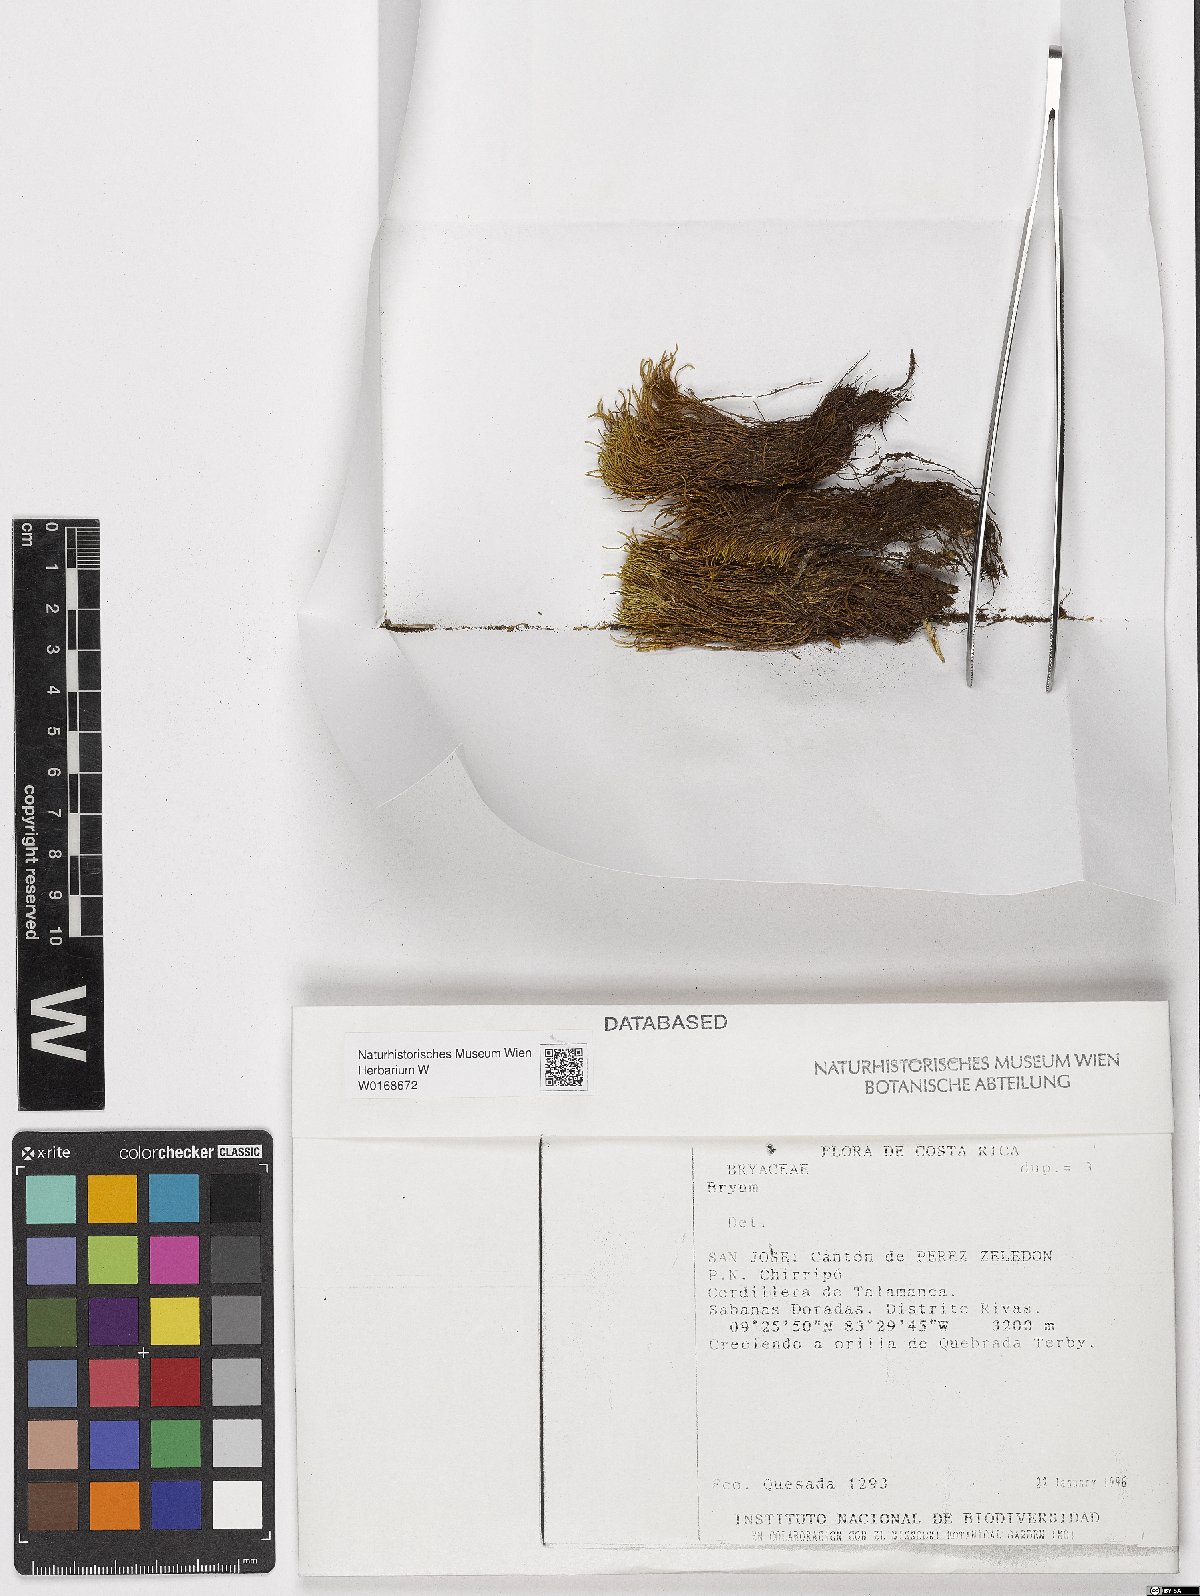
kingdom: Plantae
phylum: Bryophyta
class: Bryopsida
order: Bryales
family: Bryaceae
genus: Bryum
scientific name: Bryum
